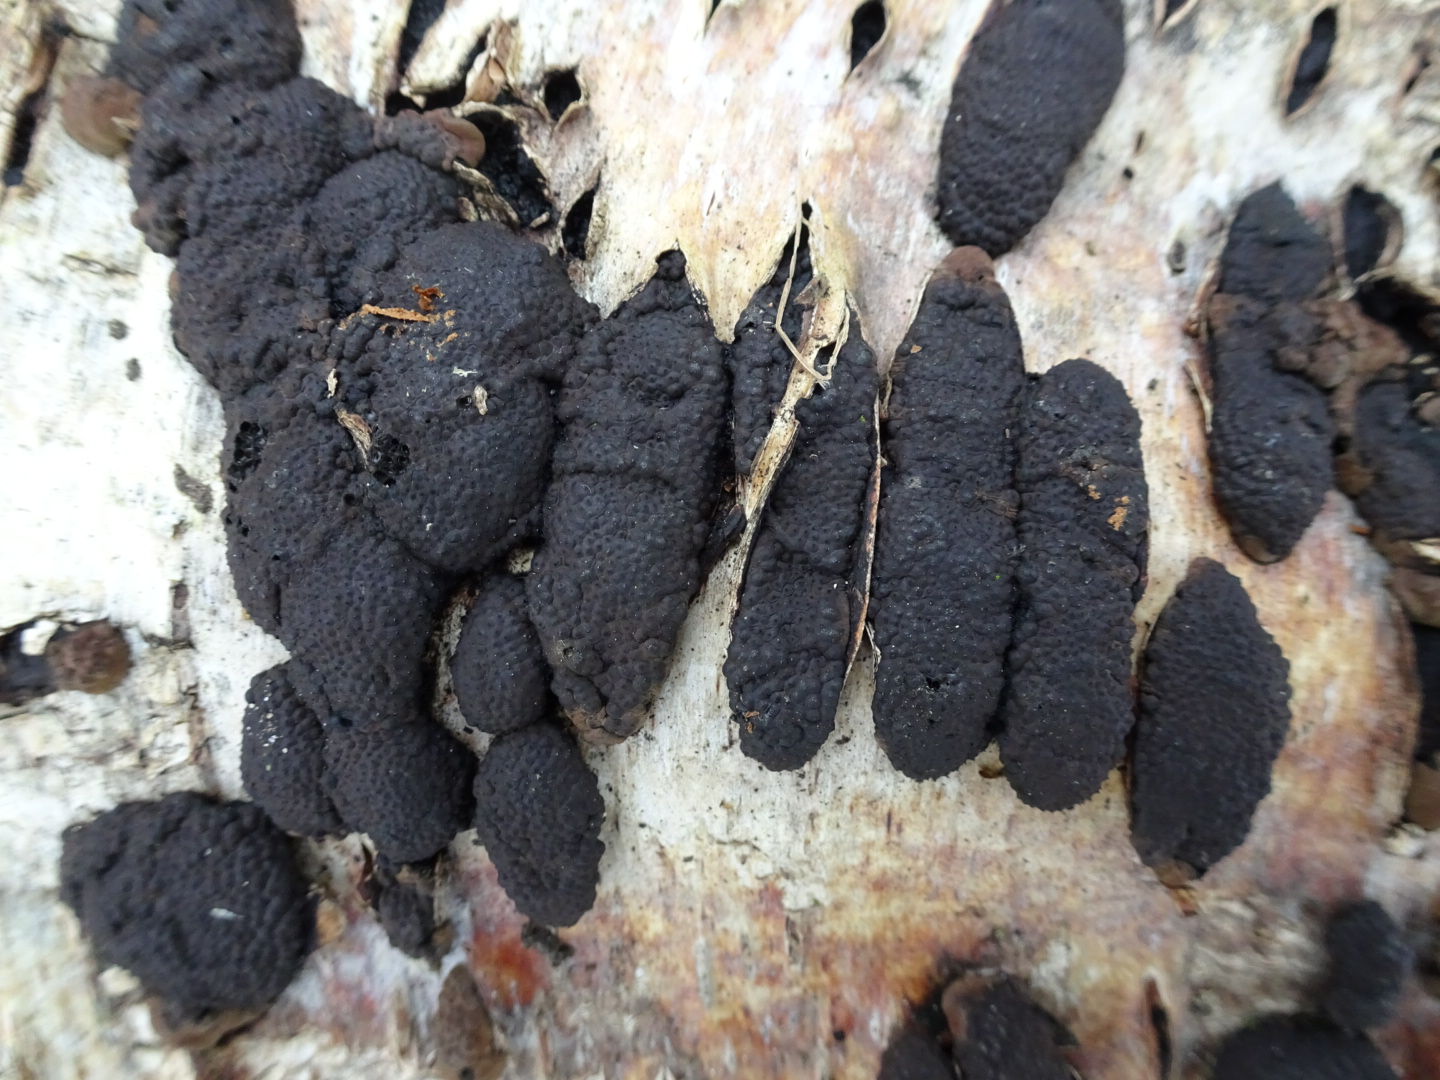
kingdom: Fungi
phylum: Ascomycota
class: Sordariomycetes
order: Xylariales
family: Hypoxylaceae
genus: Jackrogersella
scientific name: Jackrogersella multiformis
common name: foranderlig kulbær
